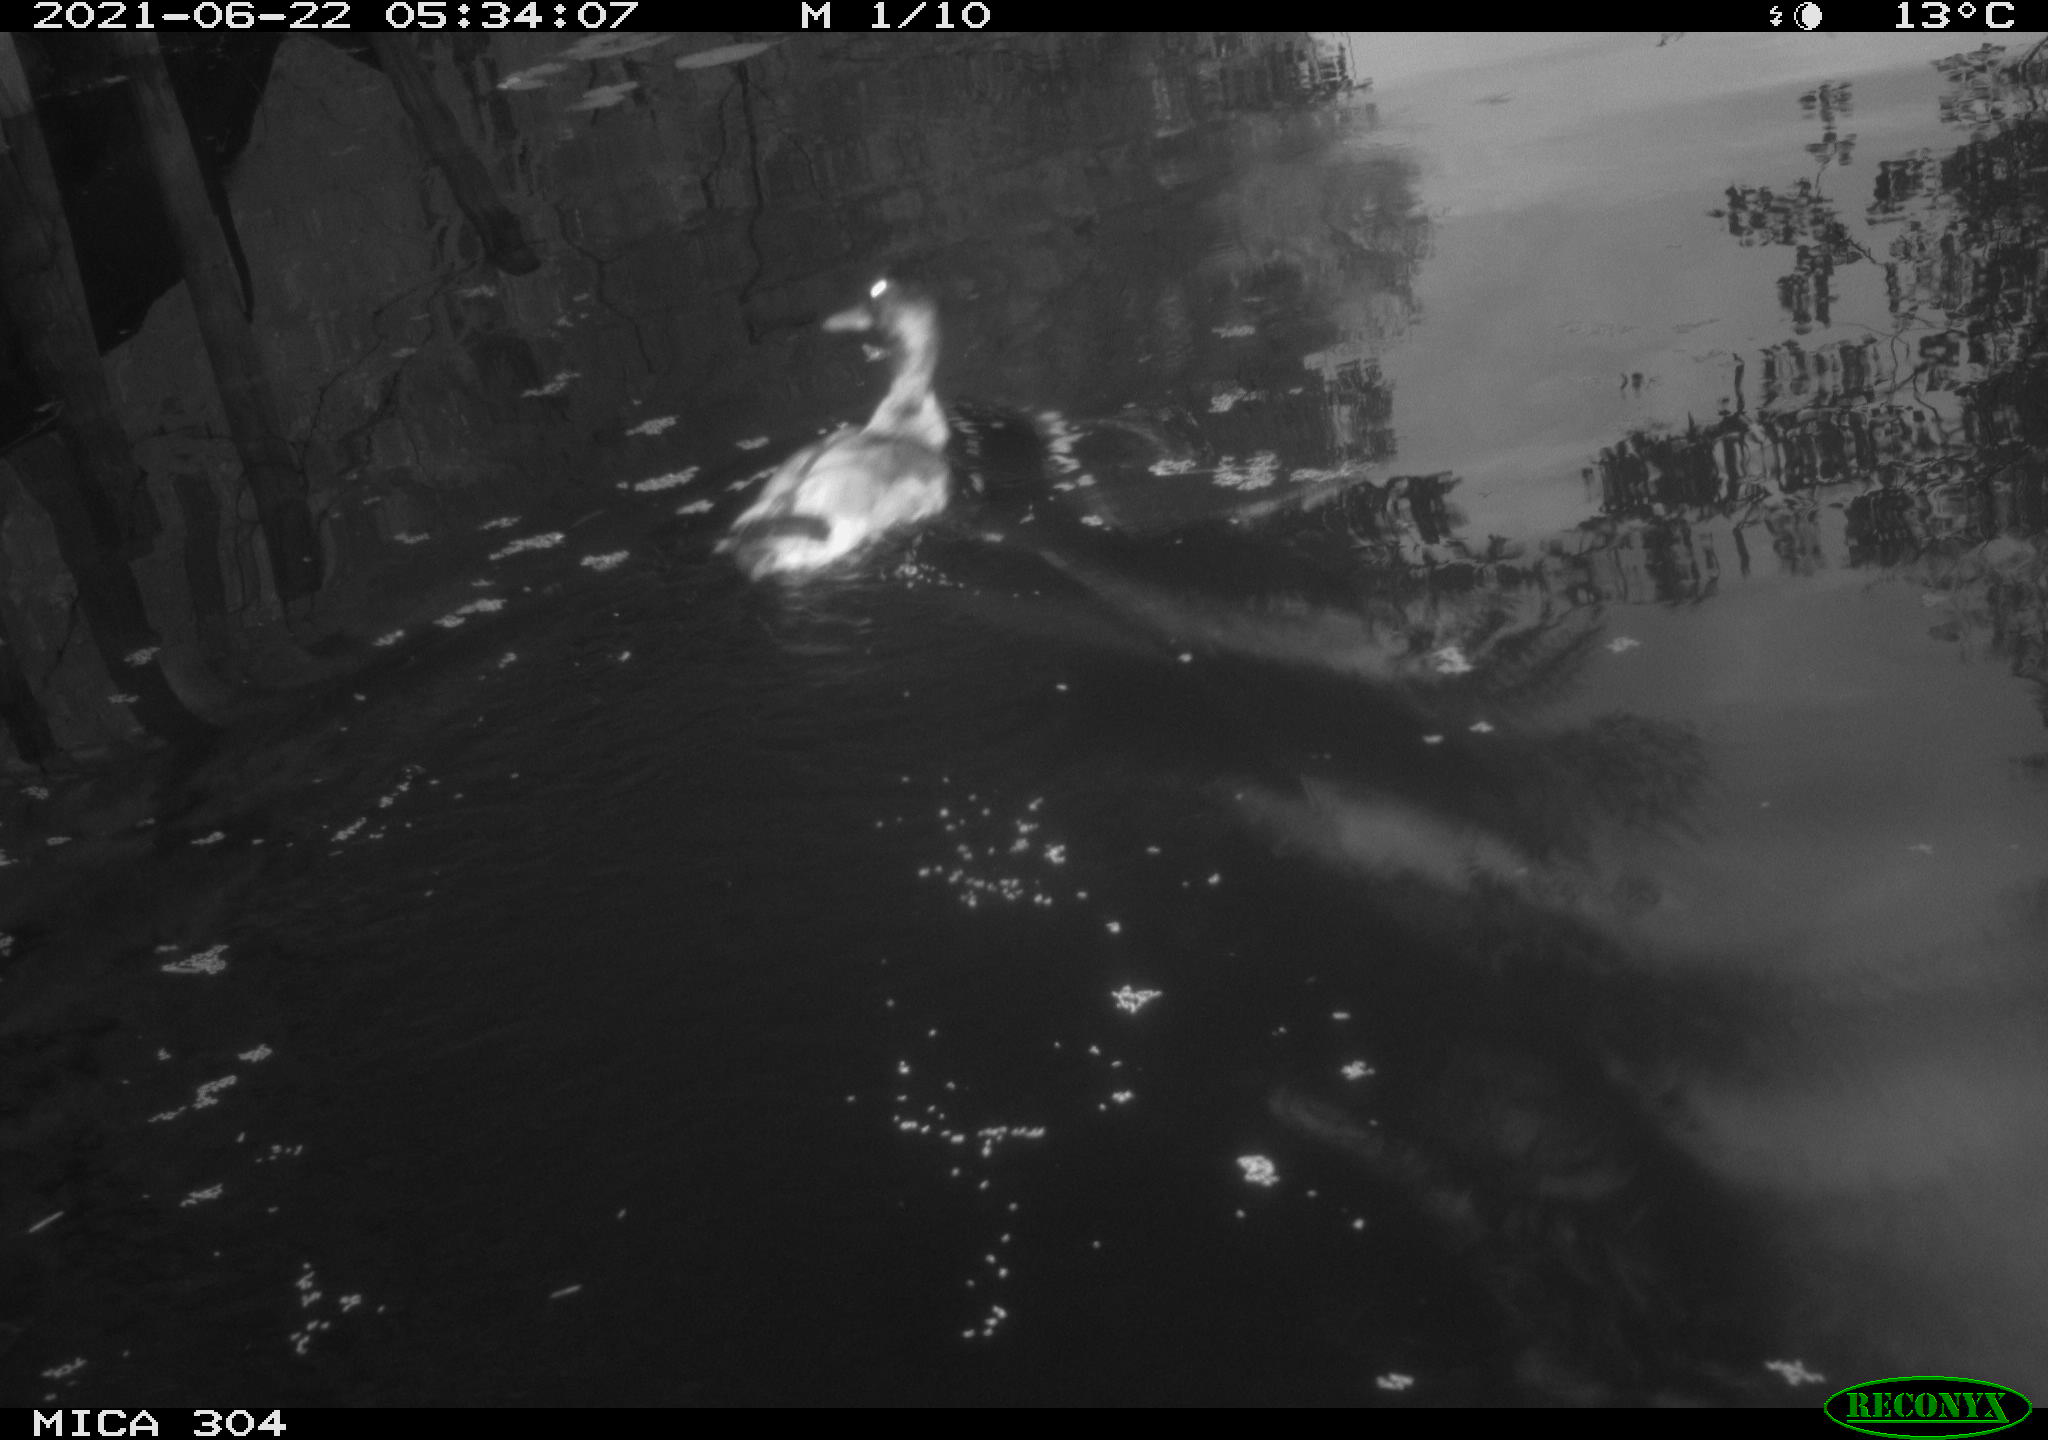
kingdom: Animalia
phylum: Chordata
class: Aves
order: Anseriformes
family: Anatidae
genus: Anas
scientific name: Anas platyrhynchos
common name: Mallard
